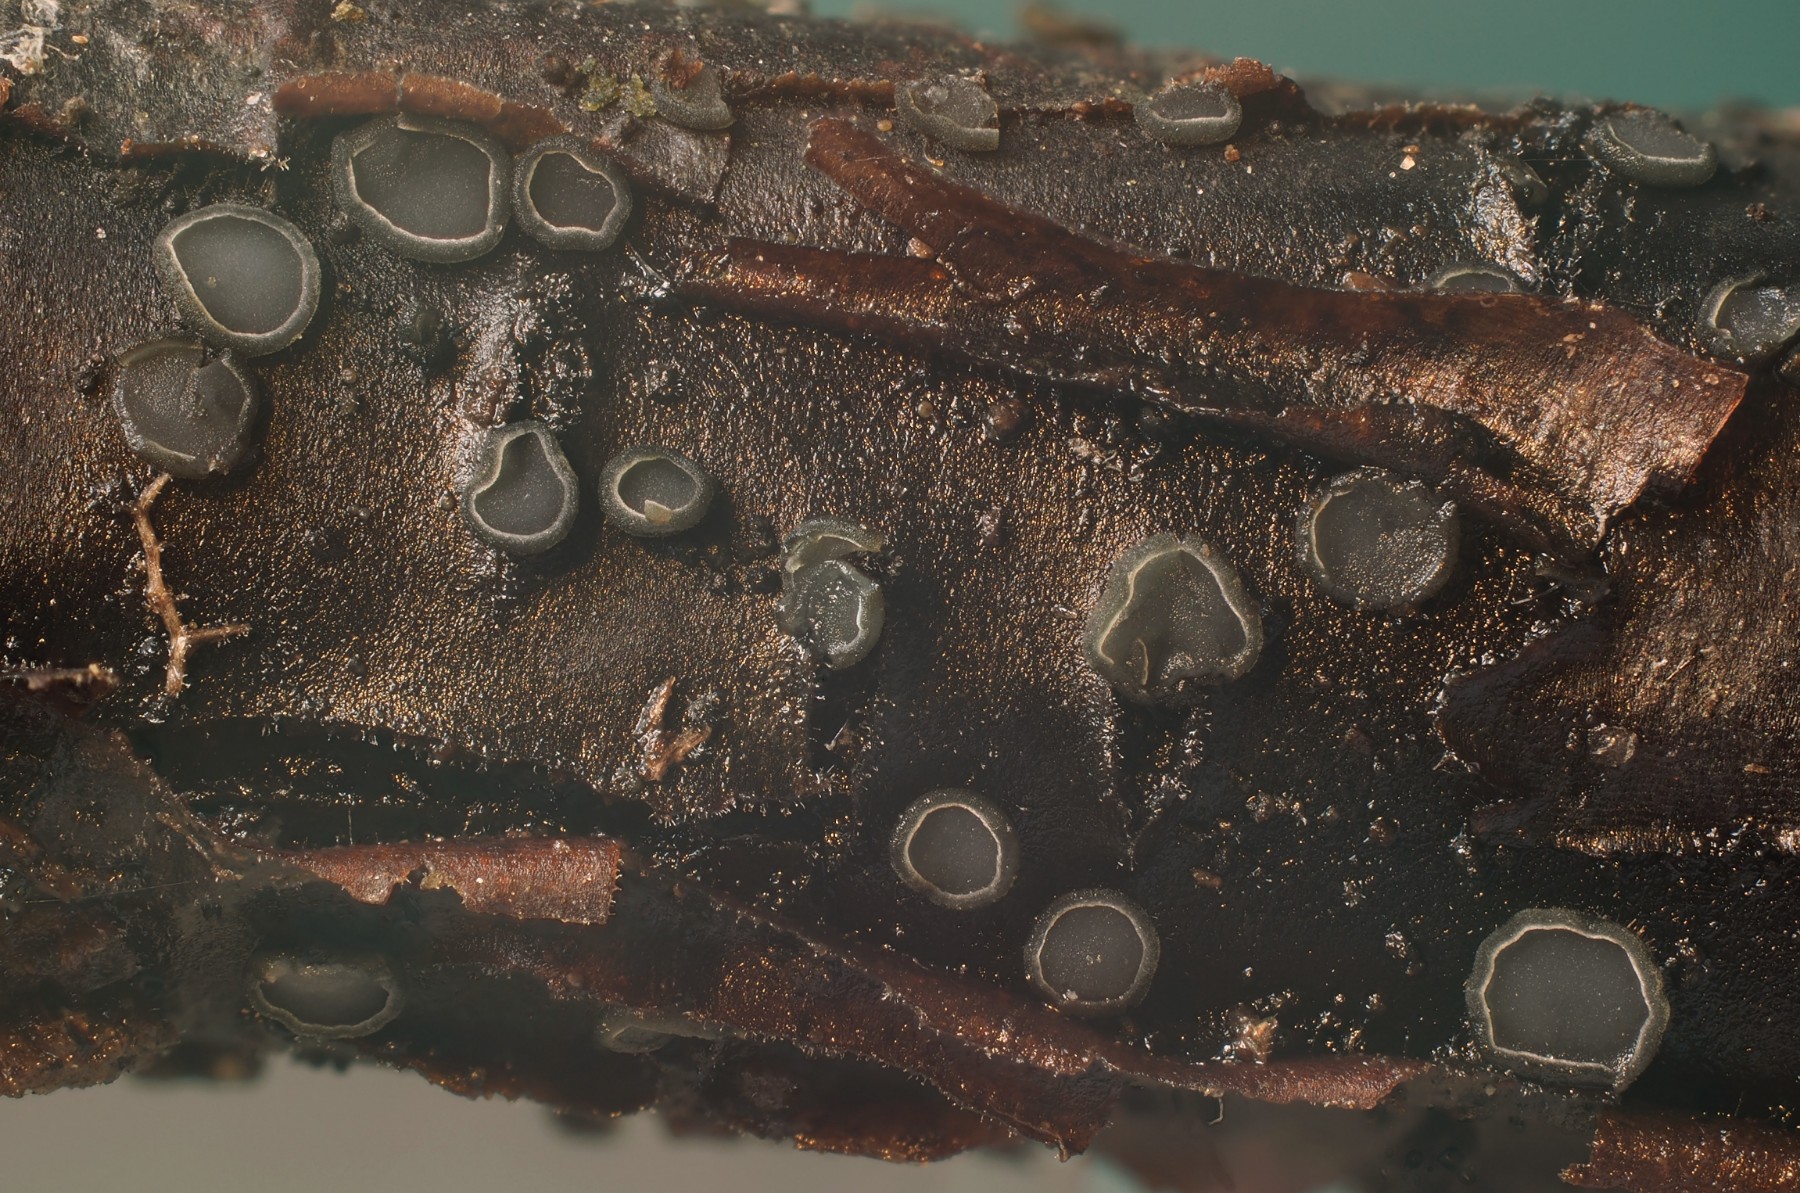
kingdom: Fungi
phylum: Ascomycota
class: Leotiomycetes
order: Helotiales
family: Mollisiaceae
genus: Mollisia
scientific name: Mollisia
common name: gråskive
